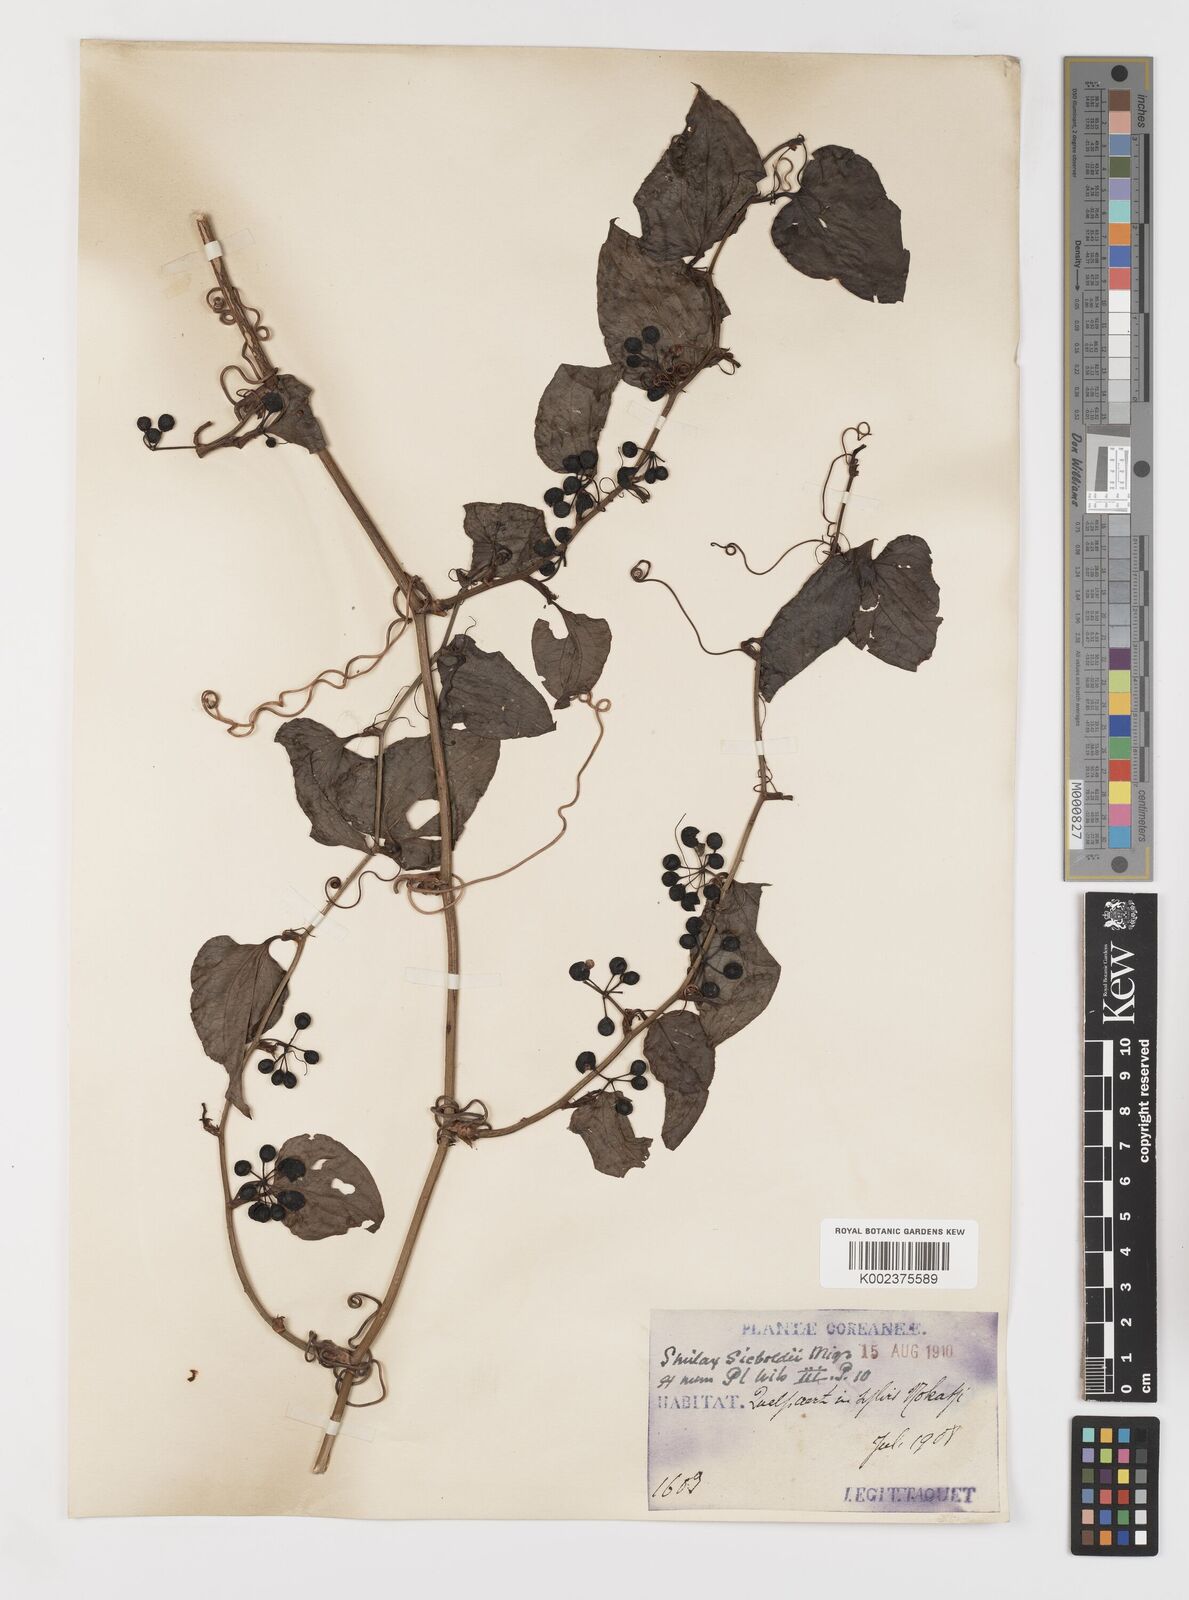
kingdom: Plantae
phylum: Tracheophyta
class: Liliopsida
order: Liliales
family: Smilacaceae
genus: Smilax
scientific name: Smilax sieboldii
